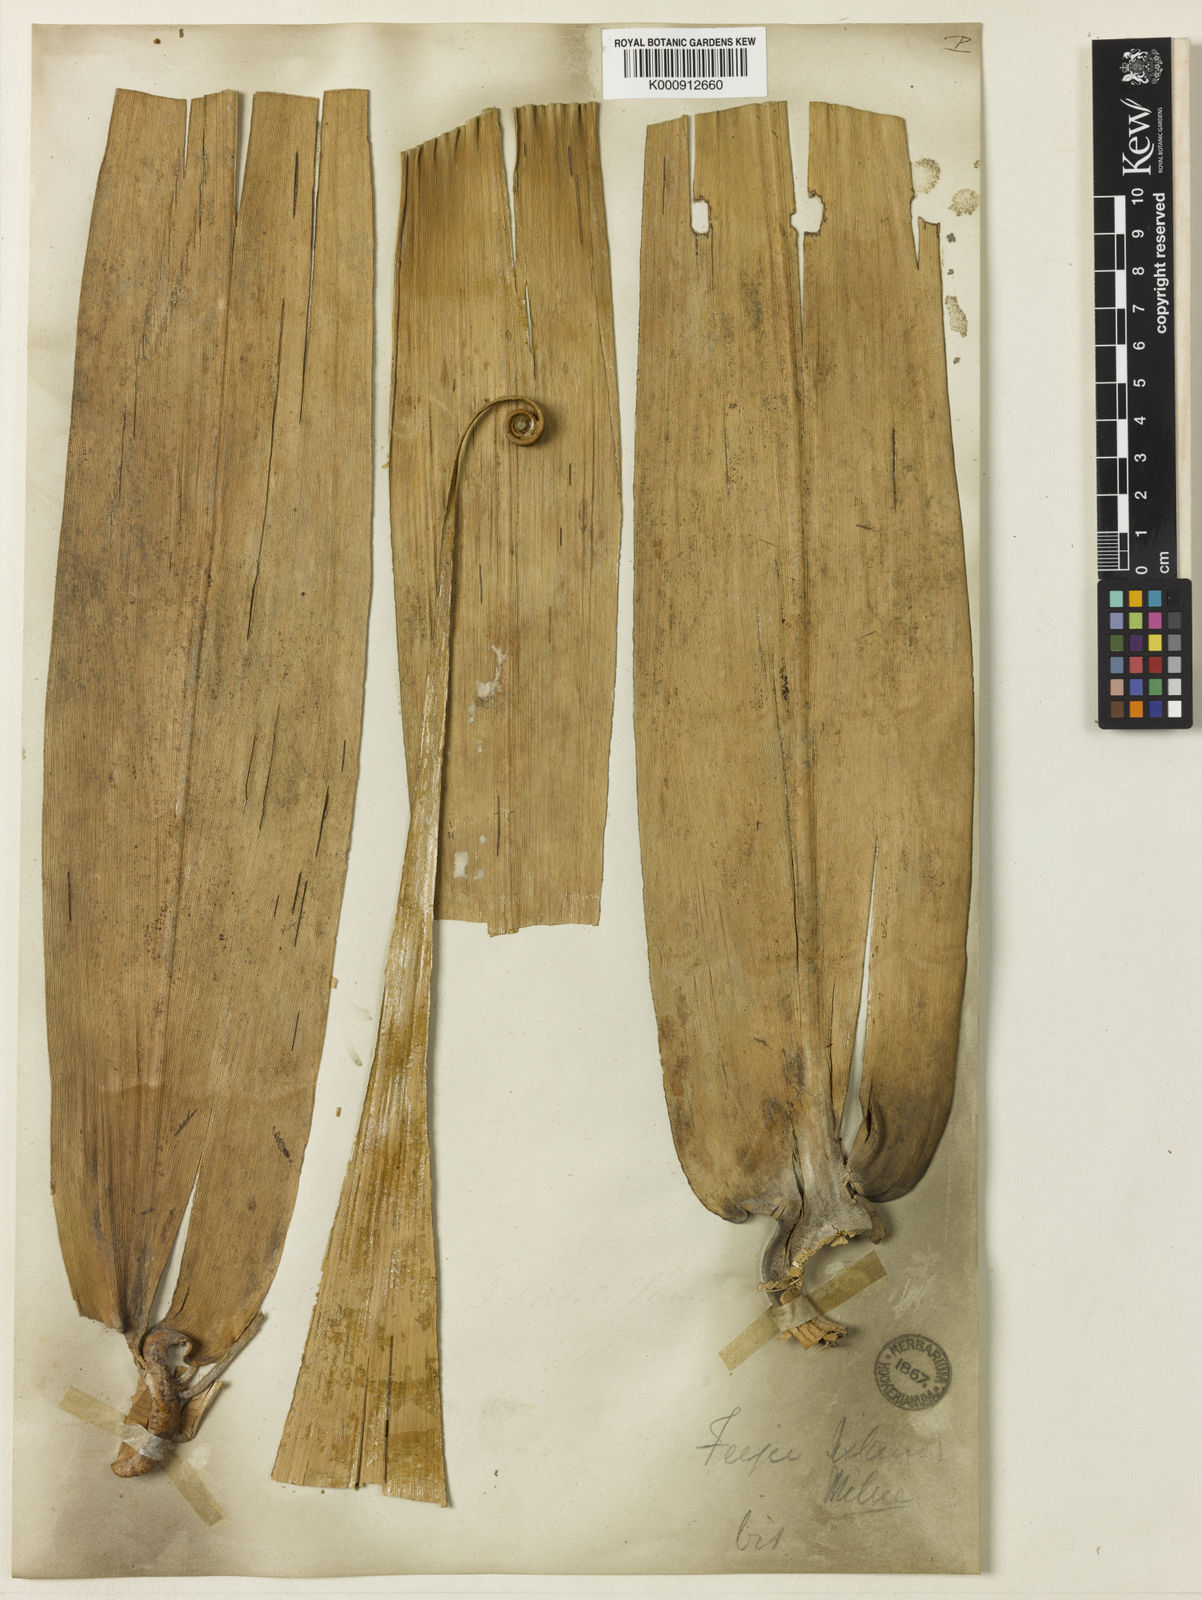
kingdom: Plantae
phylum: Tracheophyta
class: Liliopsida
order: Poales
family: Flagellariaceae
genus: Flagellaria
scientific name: Flagellaria gigantea
